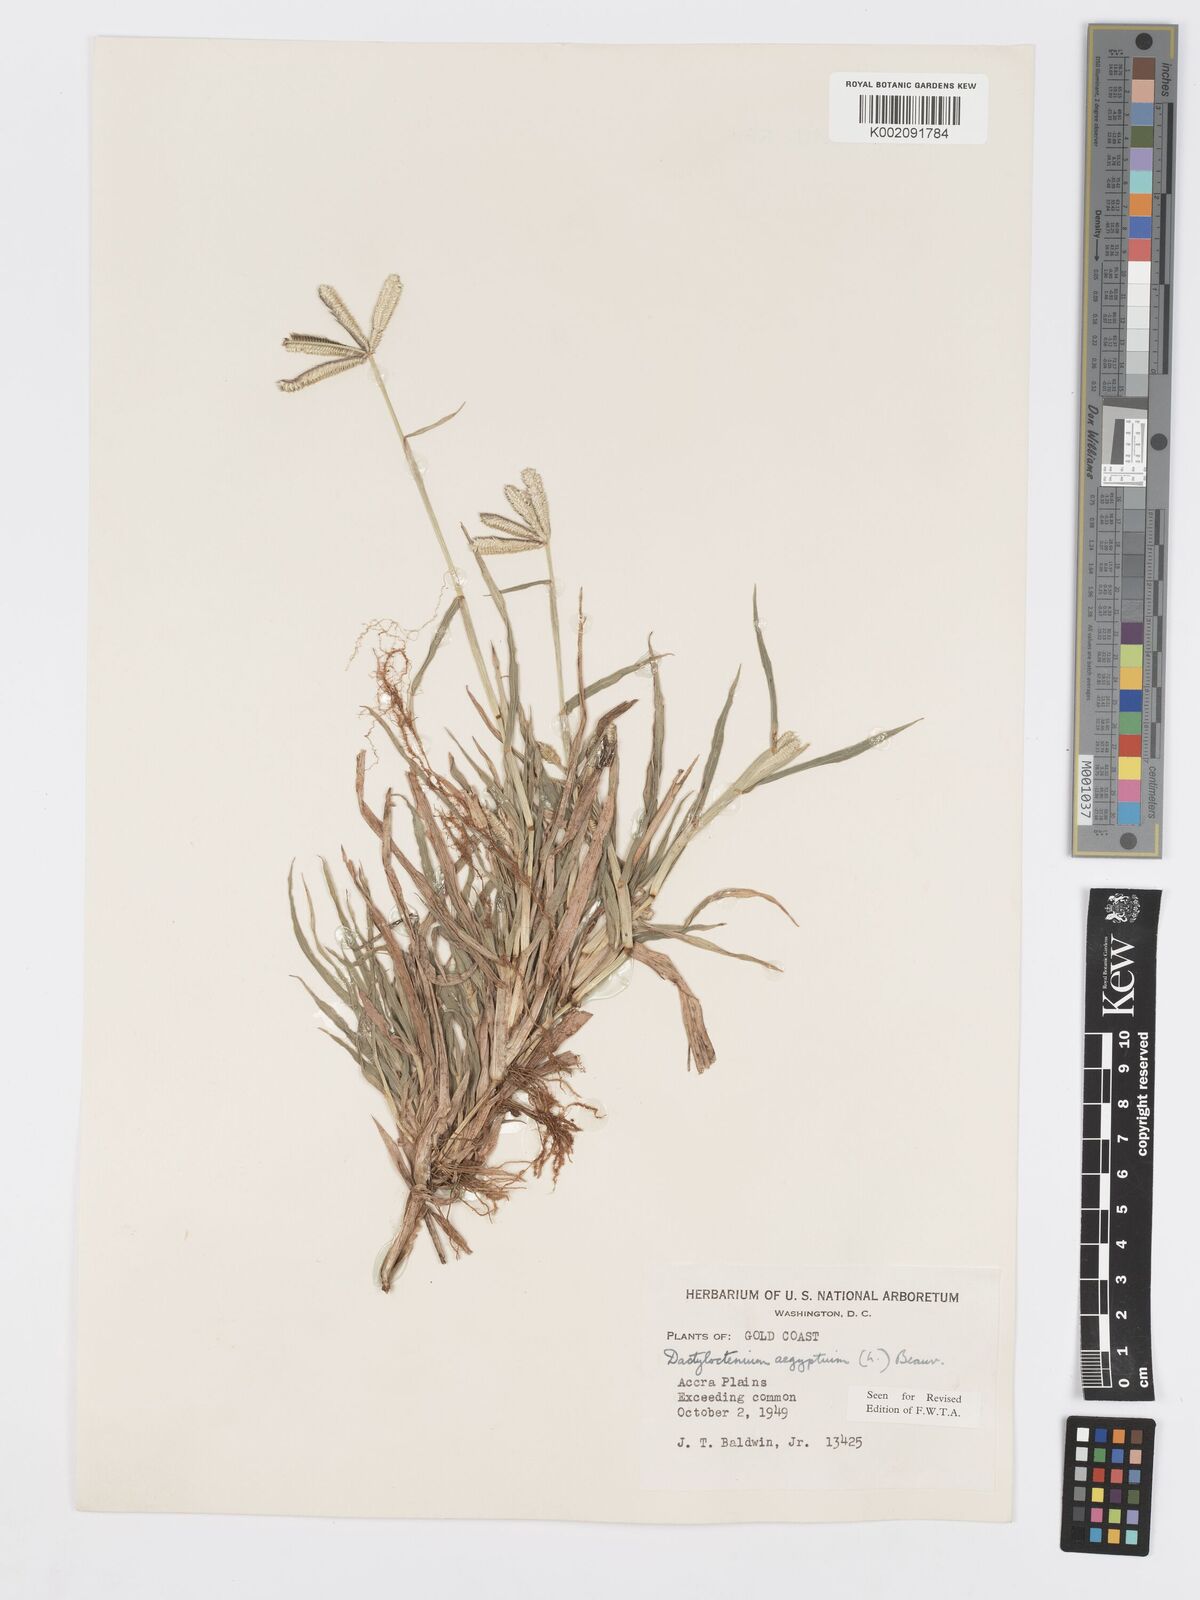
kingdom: Plantae
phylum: Tracheophyta
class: Liliopsida
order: Poales
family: Poaceae
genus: Dactyloctenium
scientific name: Dactyloctenium aegyptium
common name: Egyptian grass
